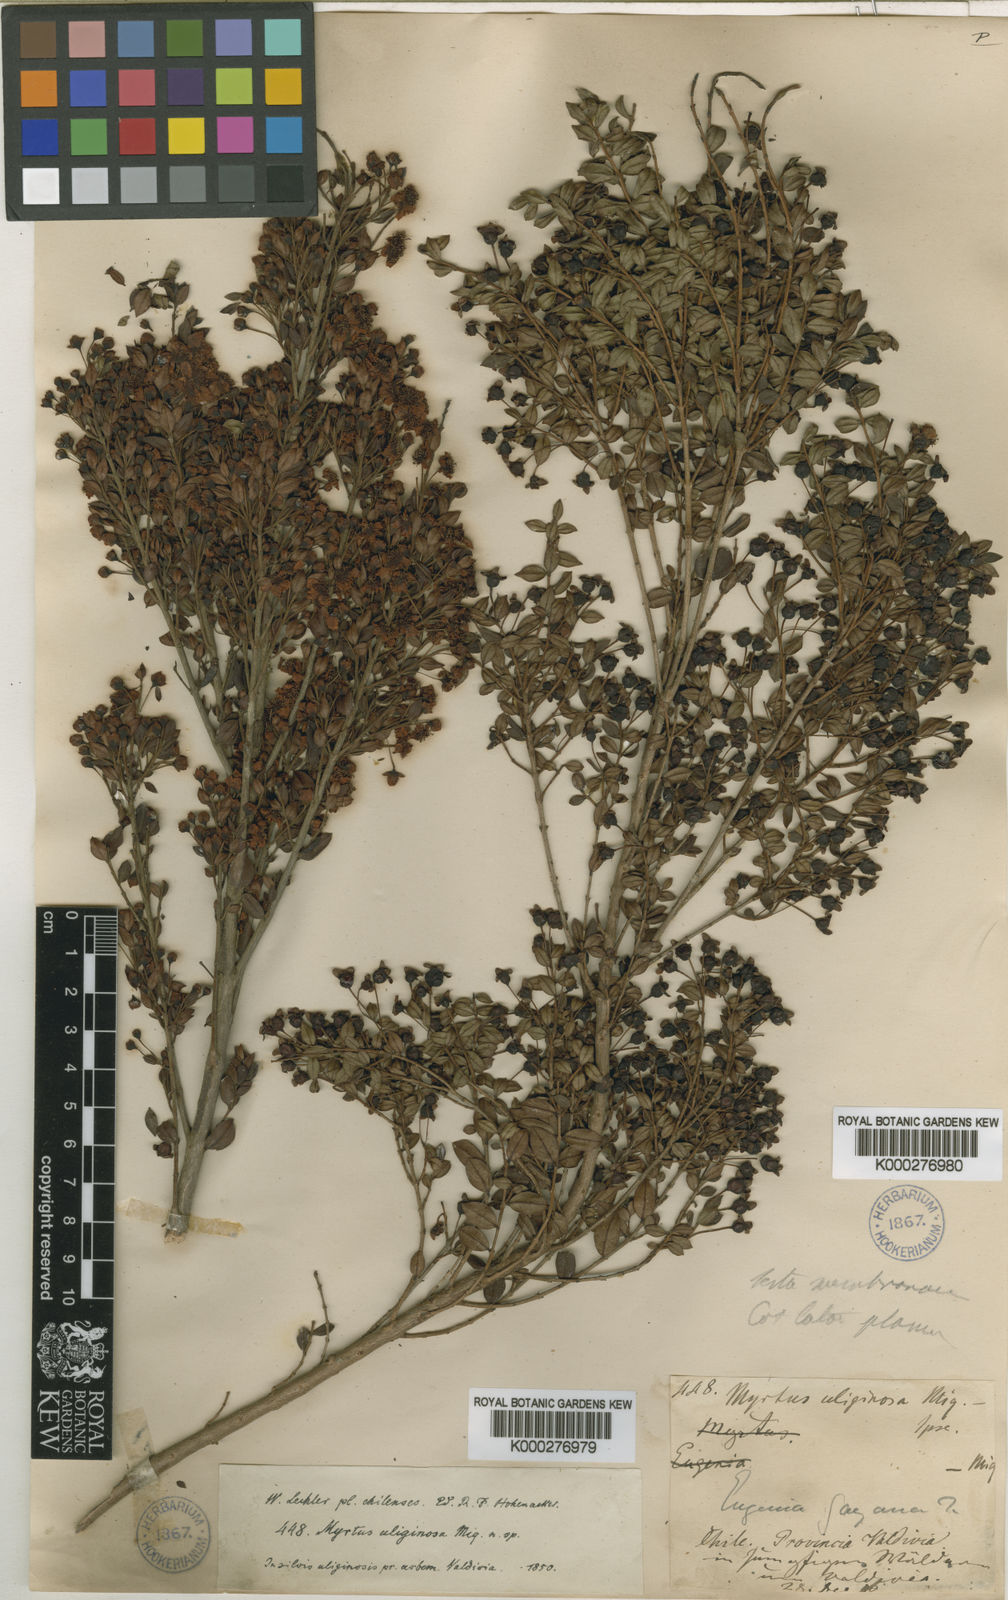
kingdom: Plantae
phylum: Tracheophyta
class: Magnoliopsida
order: Myrtales
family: Myrtaceae
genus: Luma
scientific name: Luma chequen
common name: Cheken
